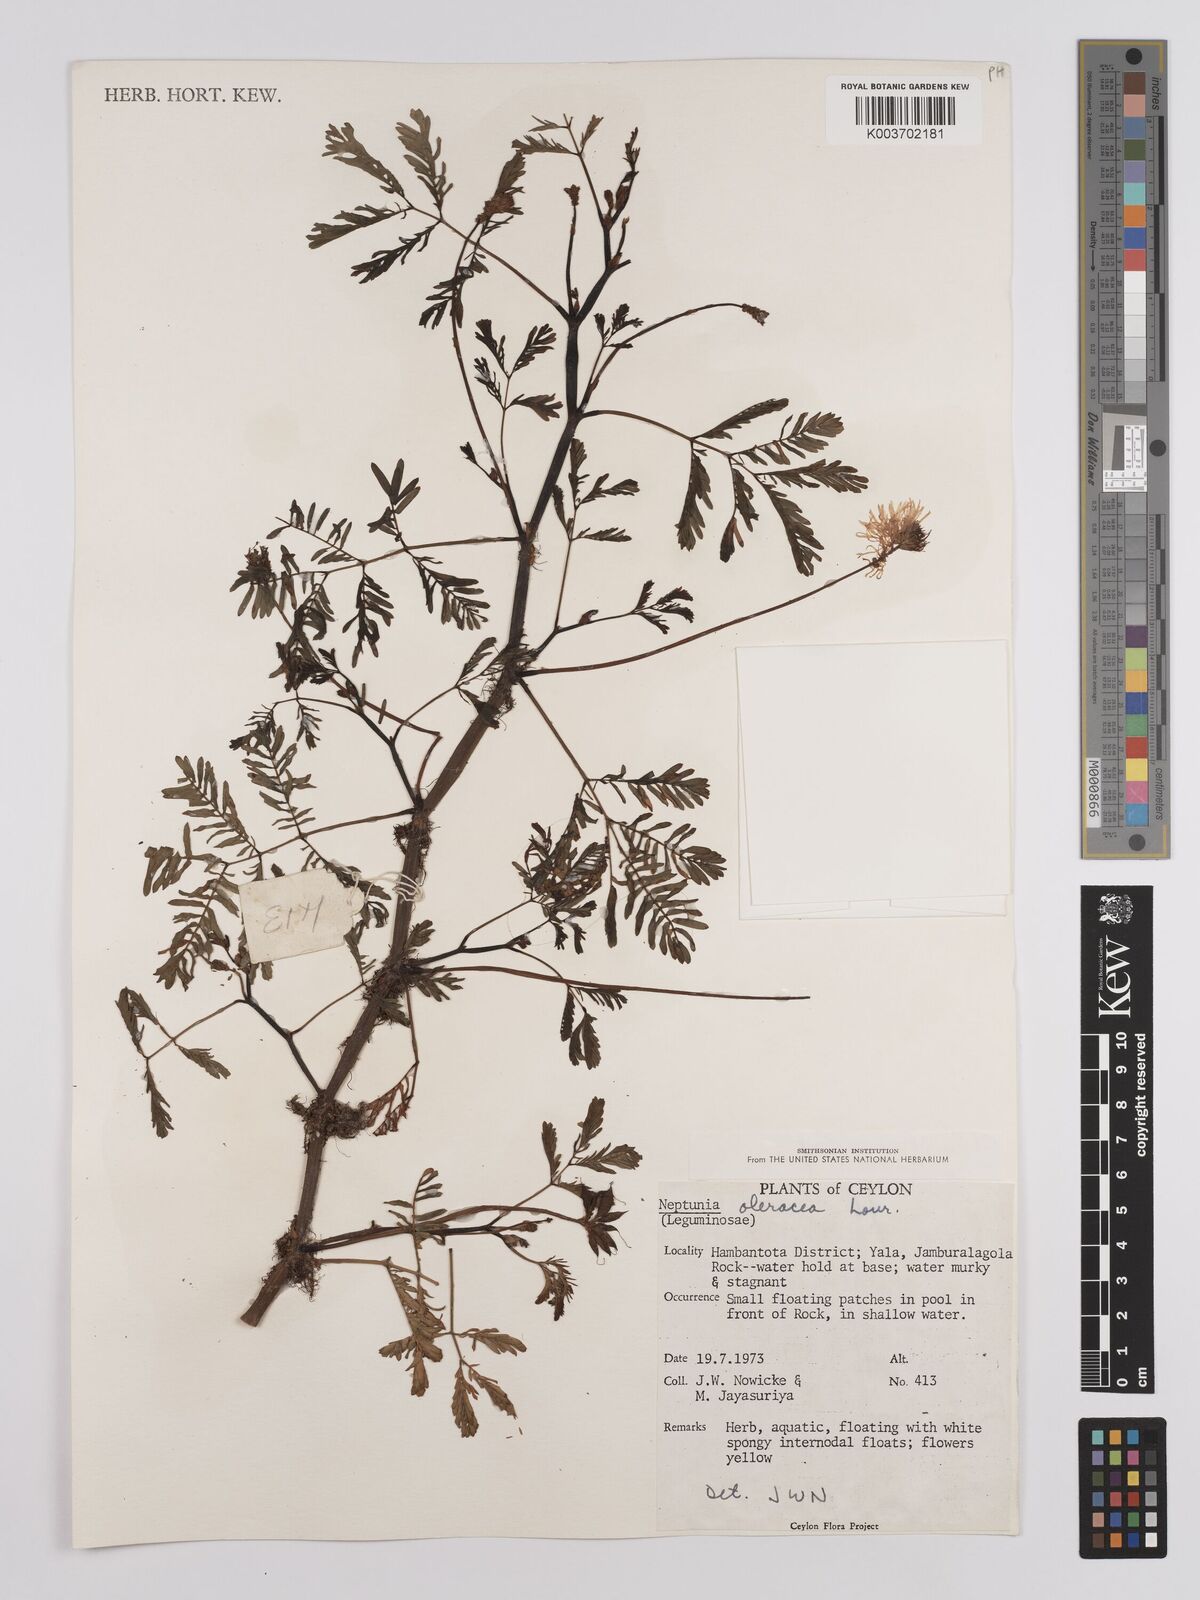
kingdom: Plantae
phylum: Tracheophyta
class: Magnoliopsida
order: Fabales
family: Fabaceae
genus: Neptunia
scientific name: Neptunia prostrata
